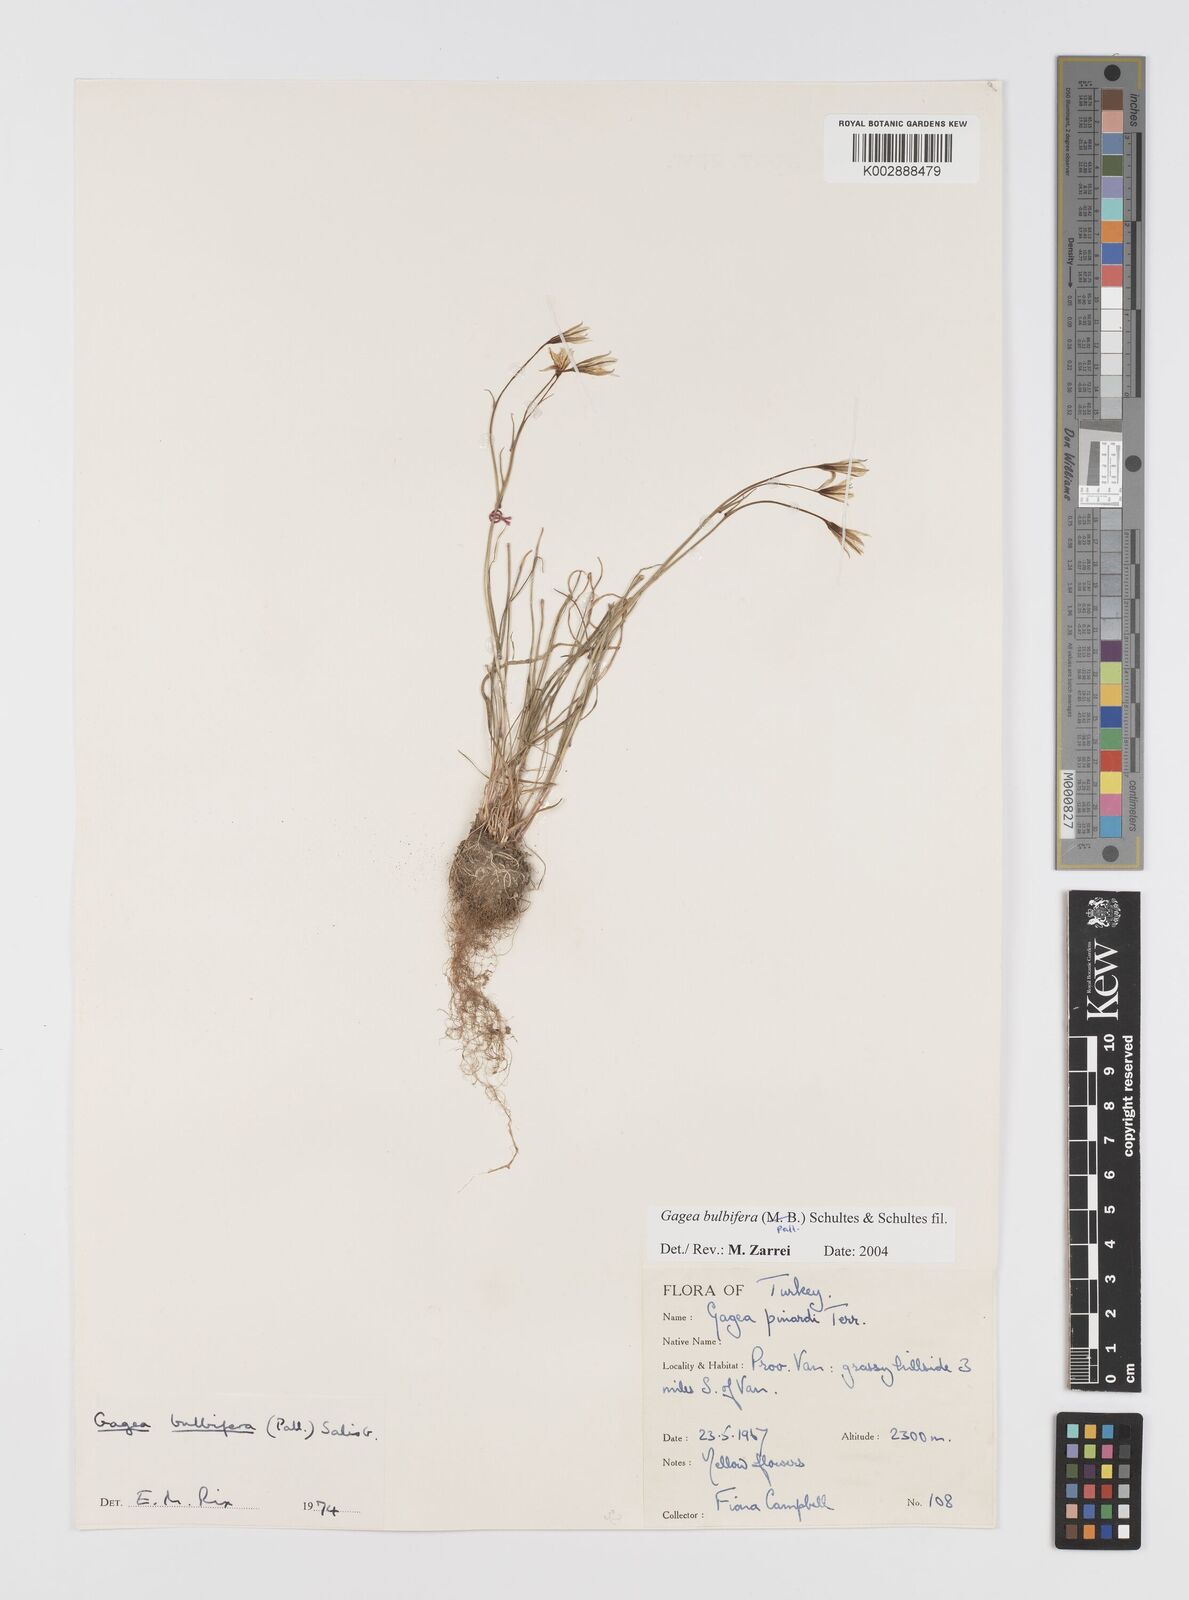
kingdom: Plantae
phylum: Tracheophyta
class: Liliopsida
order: Liliales
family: Liliaceae
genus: Gagea
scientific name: Gagea bulbifera
